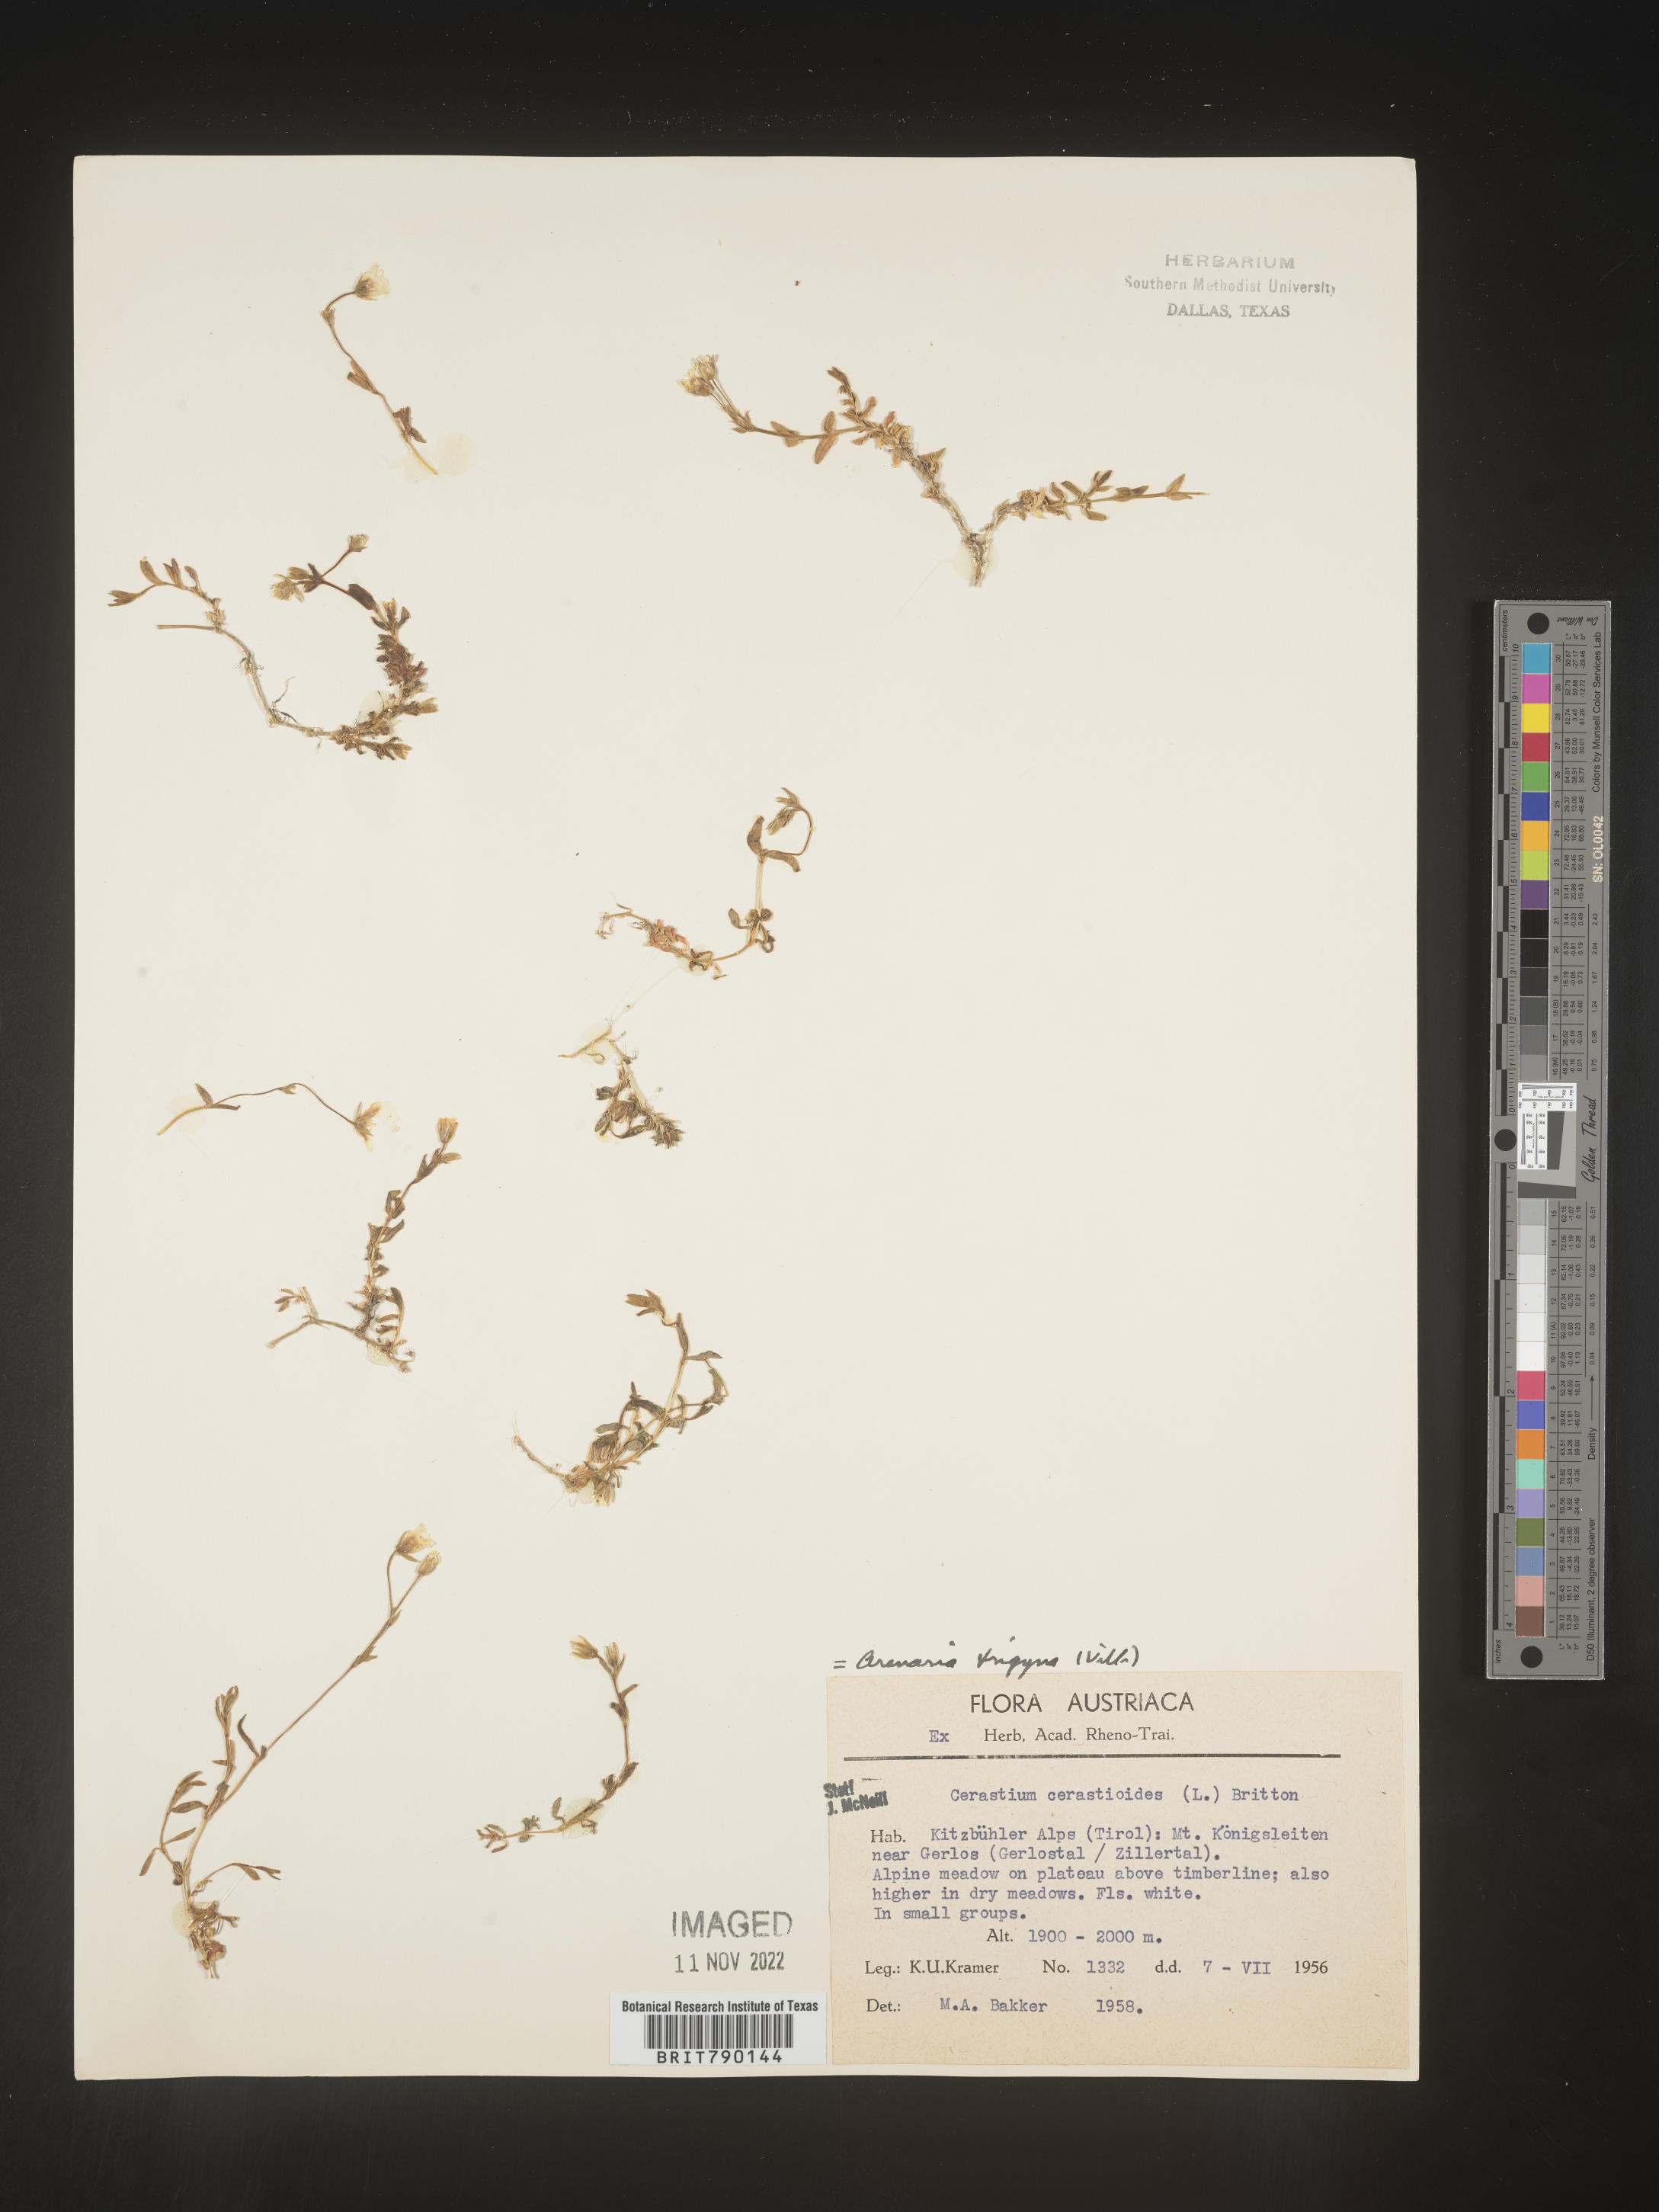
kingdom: Plantae
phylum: Tracheophyta
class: Magnoliopsida
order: Caryophyllales
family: Caryophyllaceae
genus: Cerastium
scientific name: Cerastium
